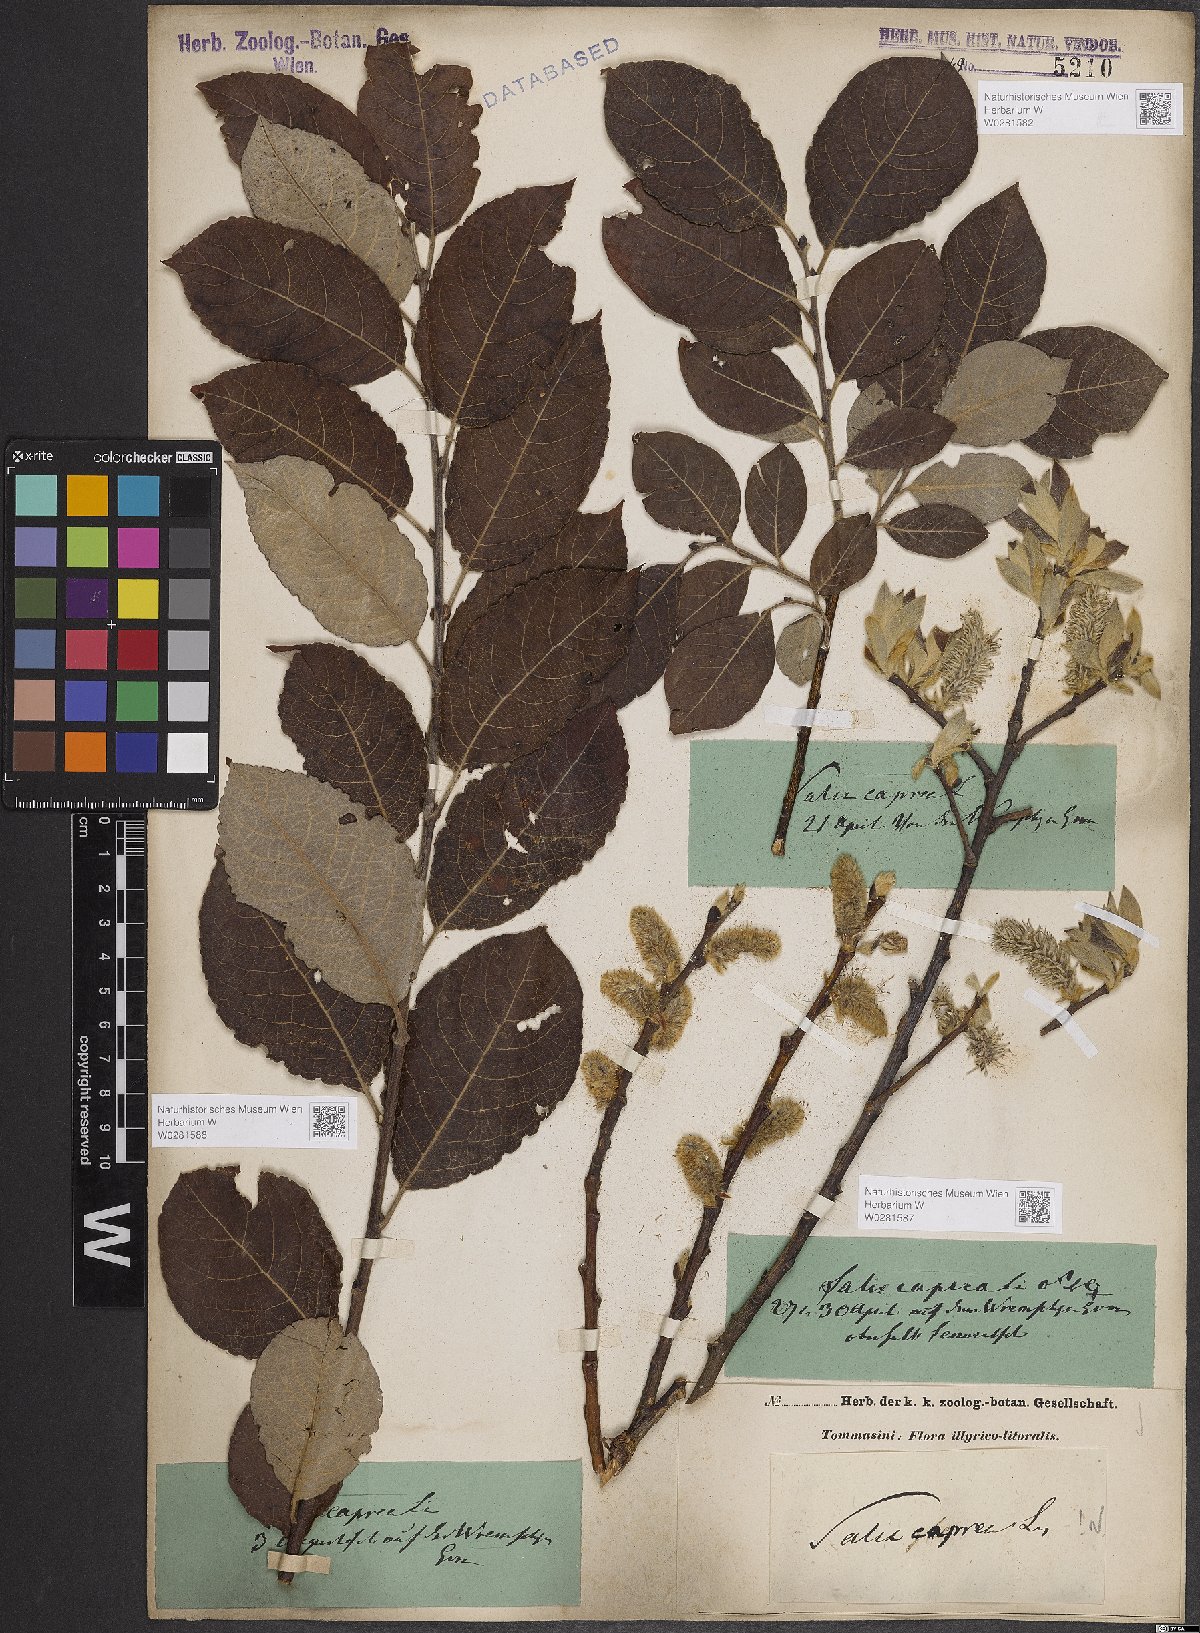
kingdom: Plantae
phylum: Tracheophyta
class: Magnoliopsida
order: Malpighiales
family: Salicaceae
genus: Salix
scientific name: Salix caprea
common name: Goat willow
